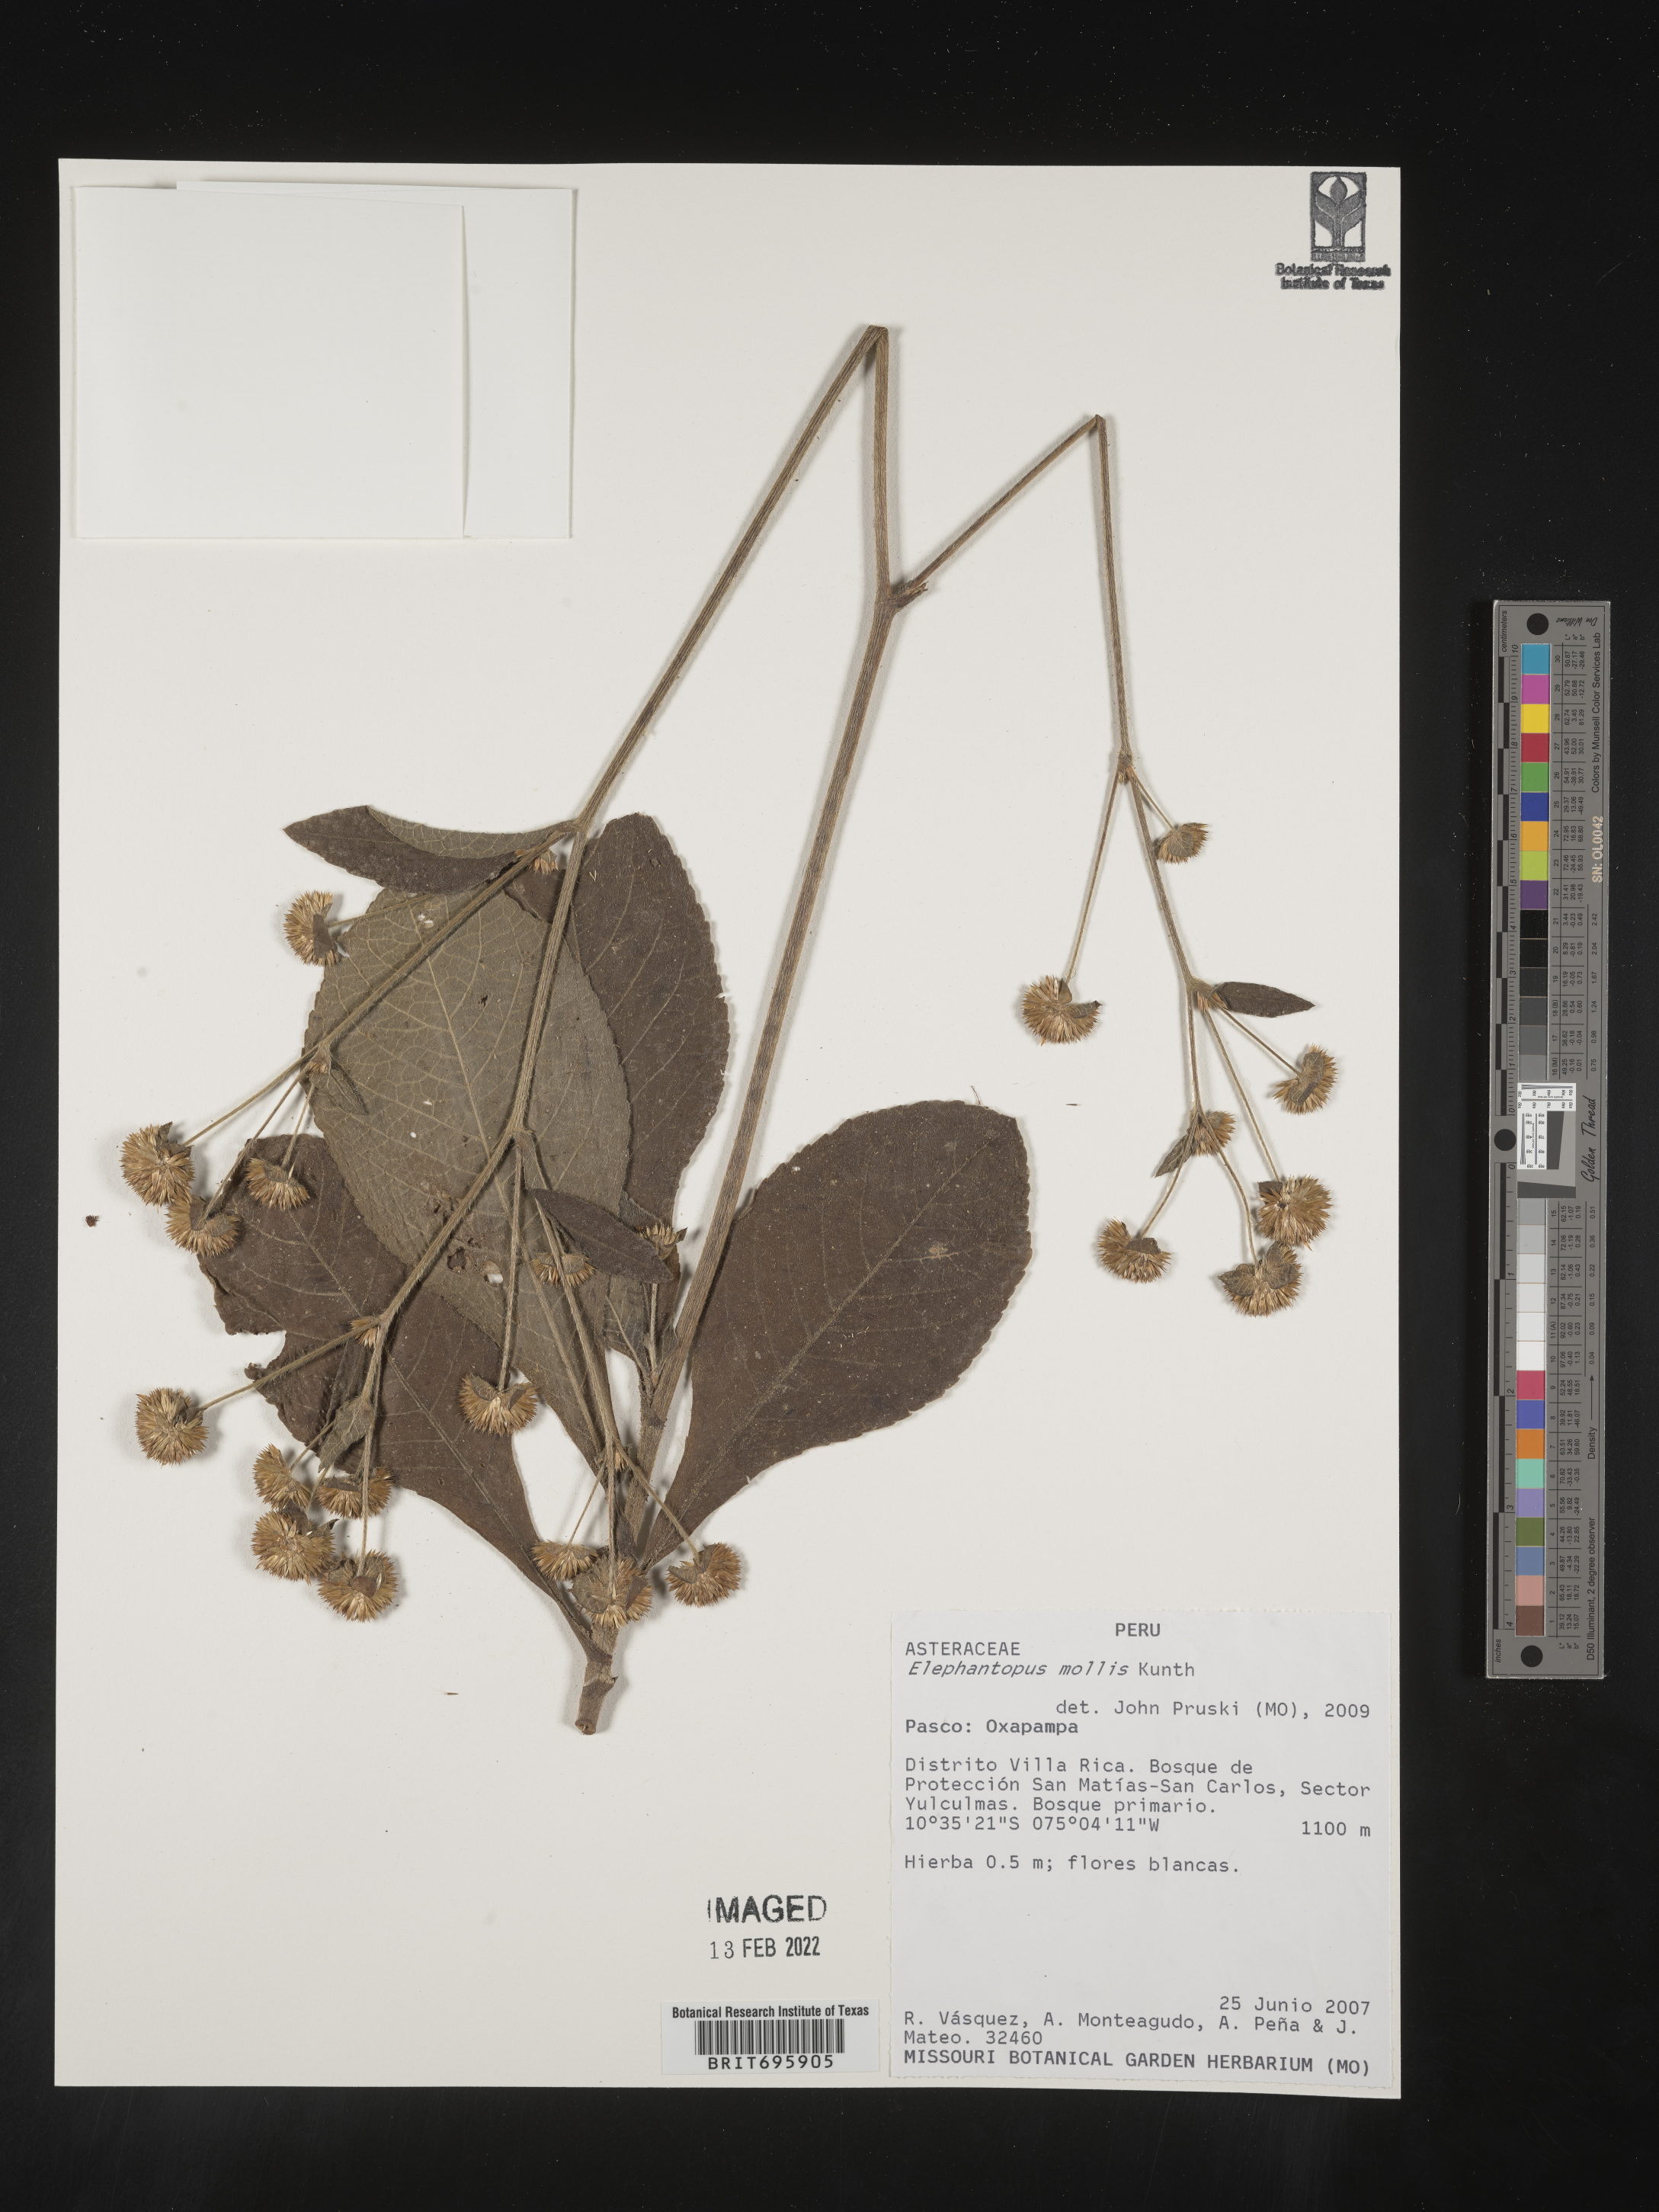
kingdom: Plantae
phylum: Tracheophyta
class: Magnoliopsida
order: Asterales
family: Asteraceae
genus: Elephantopus
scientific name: Elephantopus
